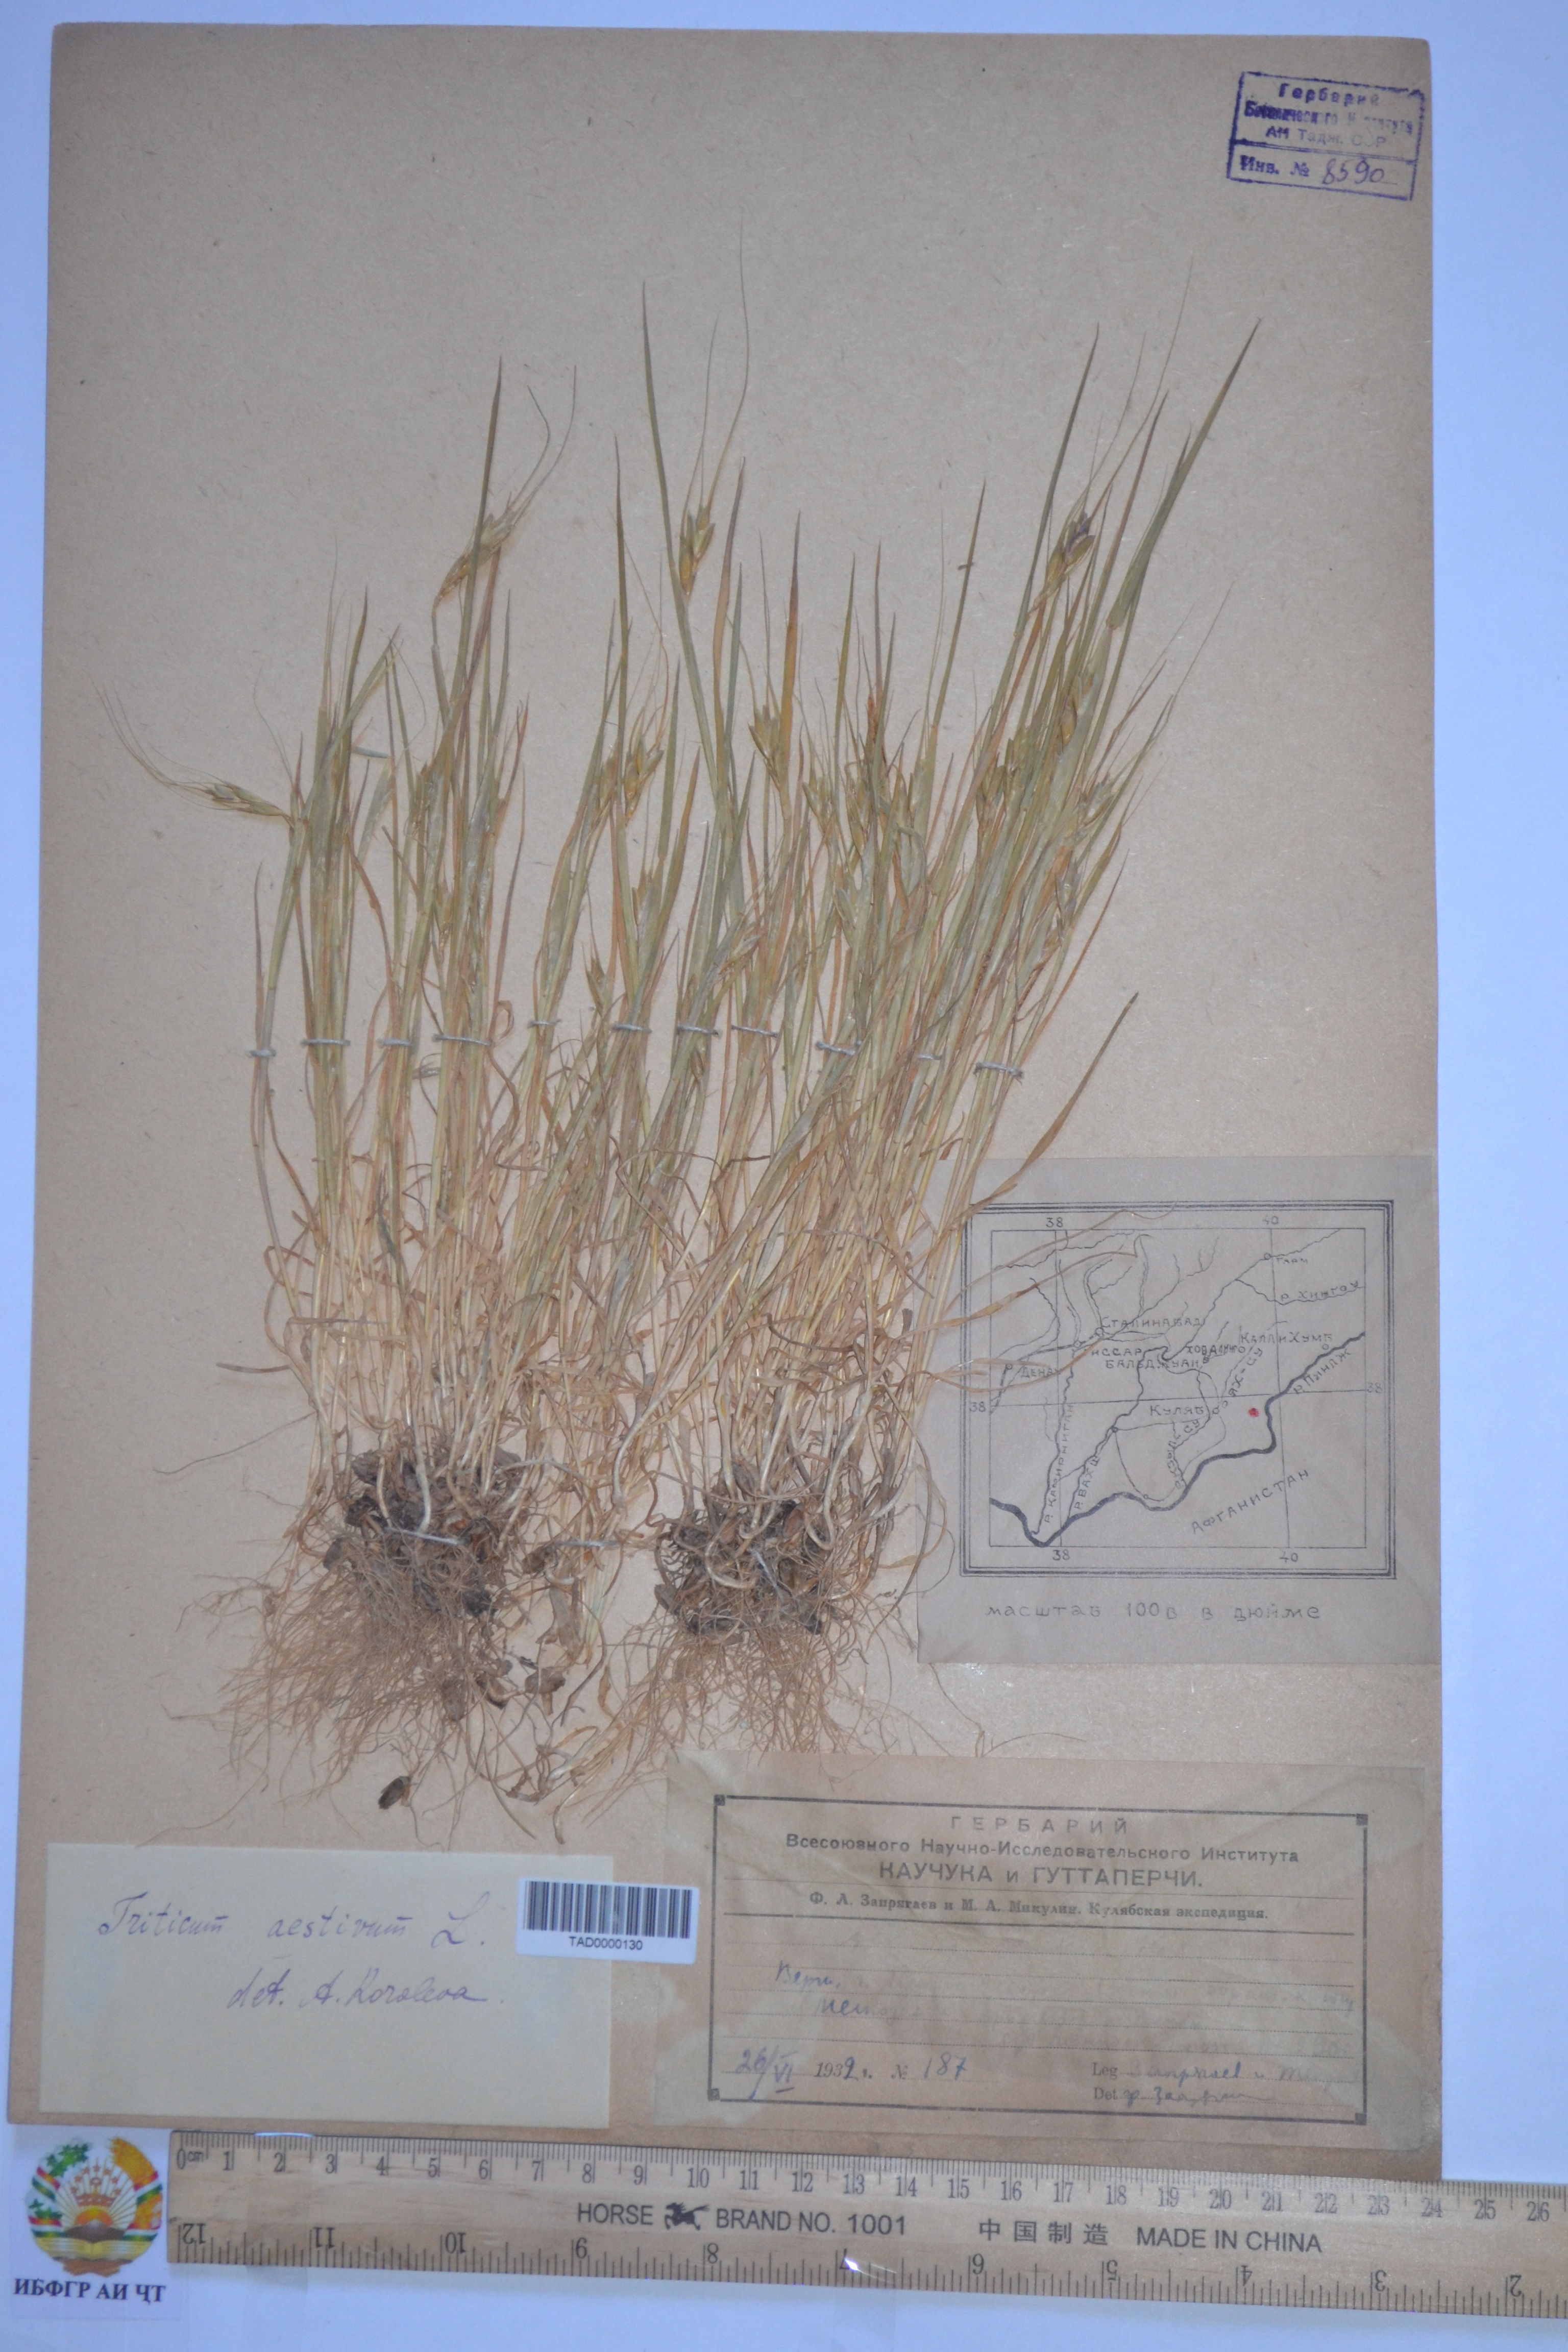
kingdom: Plantae
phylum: Tracheophyta
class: Liliopsida
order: Poales
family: Poaceae
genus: Triticum
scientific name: Triticum aestivum
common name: Common wheat
